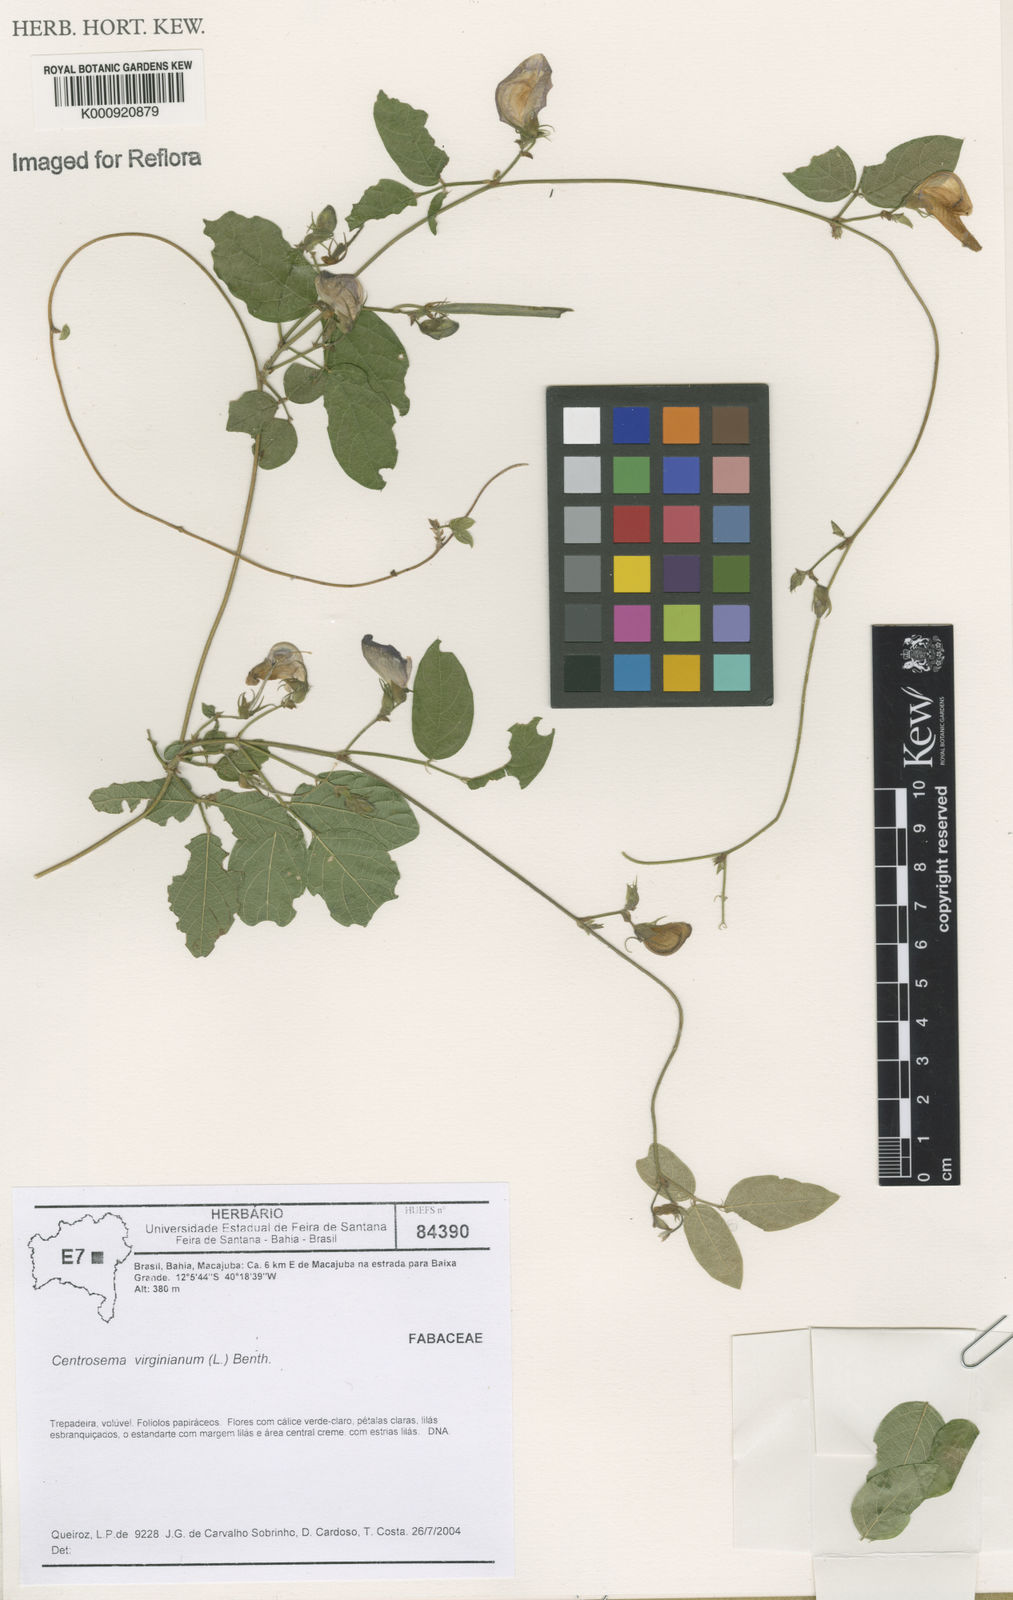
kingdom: Plantae
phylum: Tracheophyta
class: Magnoliopsida
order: Fabales
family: Fabaceae
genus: Centrosema
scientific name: Centrosema virginianum
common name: Butterfly-pea
